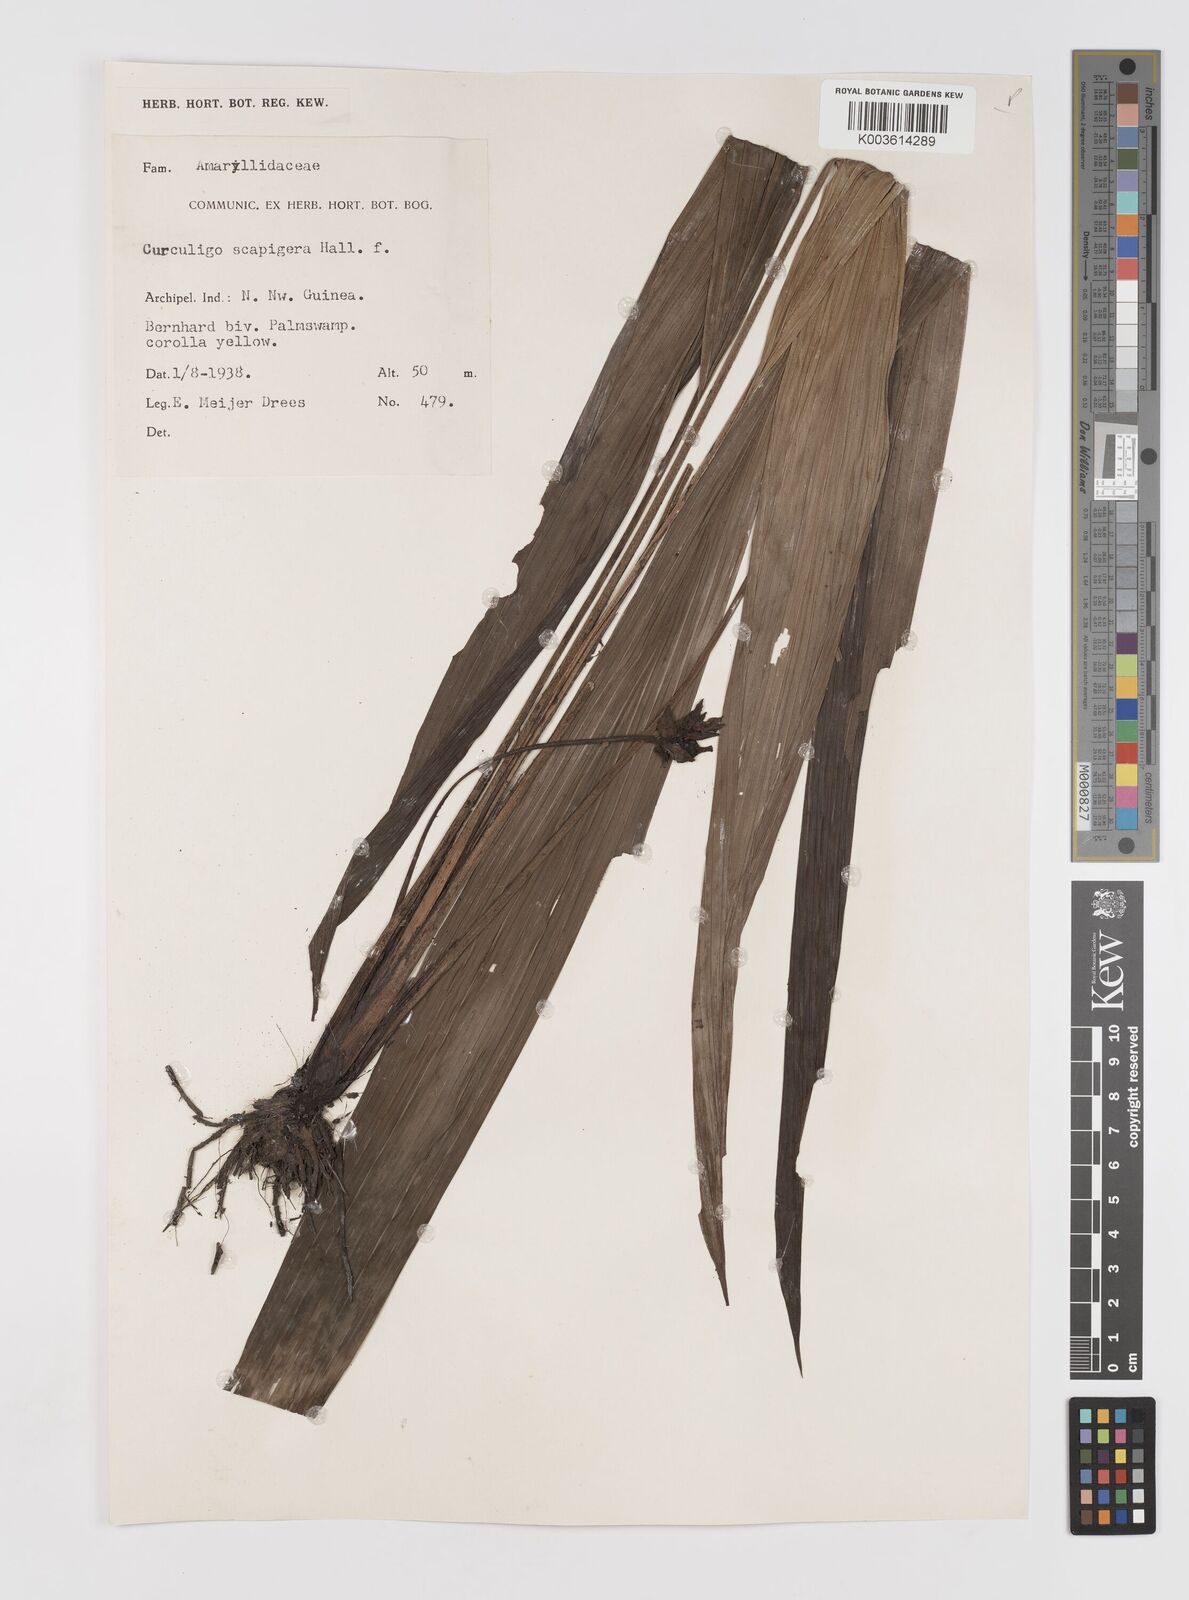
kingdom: Plantae
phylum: Tracheophyta
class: Liliopsida
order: Asparagales
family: Hypoxidaceae
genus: Curculigo
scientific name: Curculigo erecta
